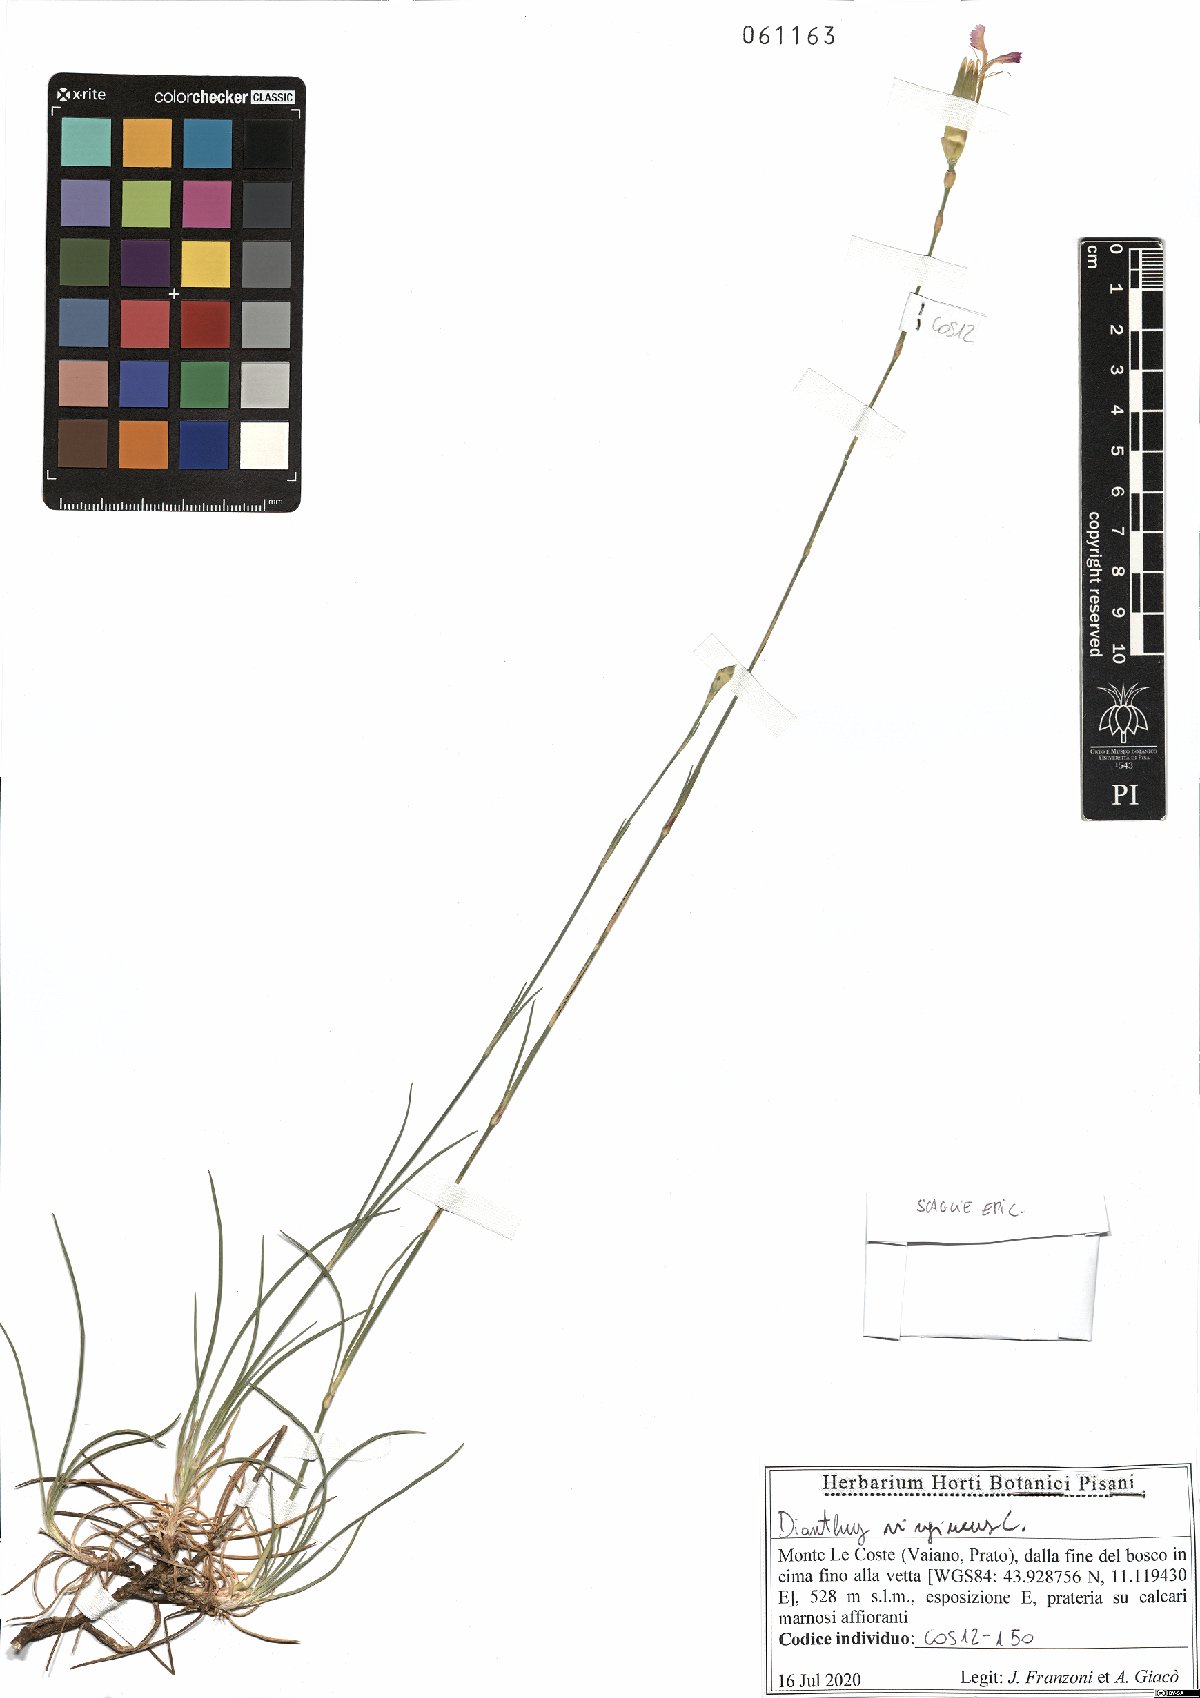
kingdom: Plantae
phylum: Tracheophyta
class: Magnoliopsida
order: Caryophyllales
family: Caryophyllaceae
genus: Dianthus
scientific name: Dianthus virgineus
